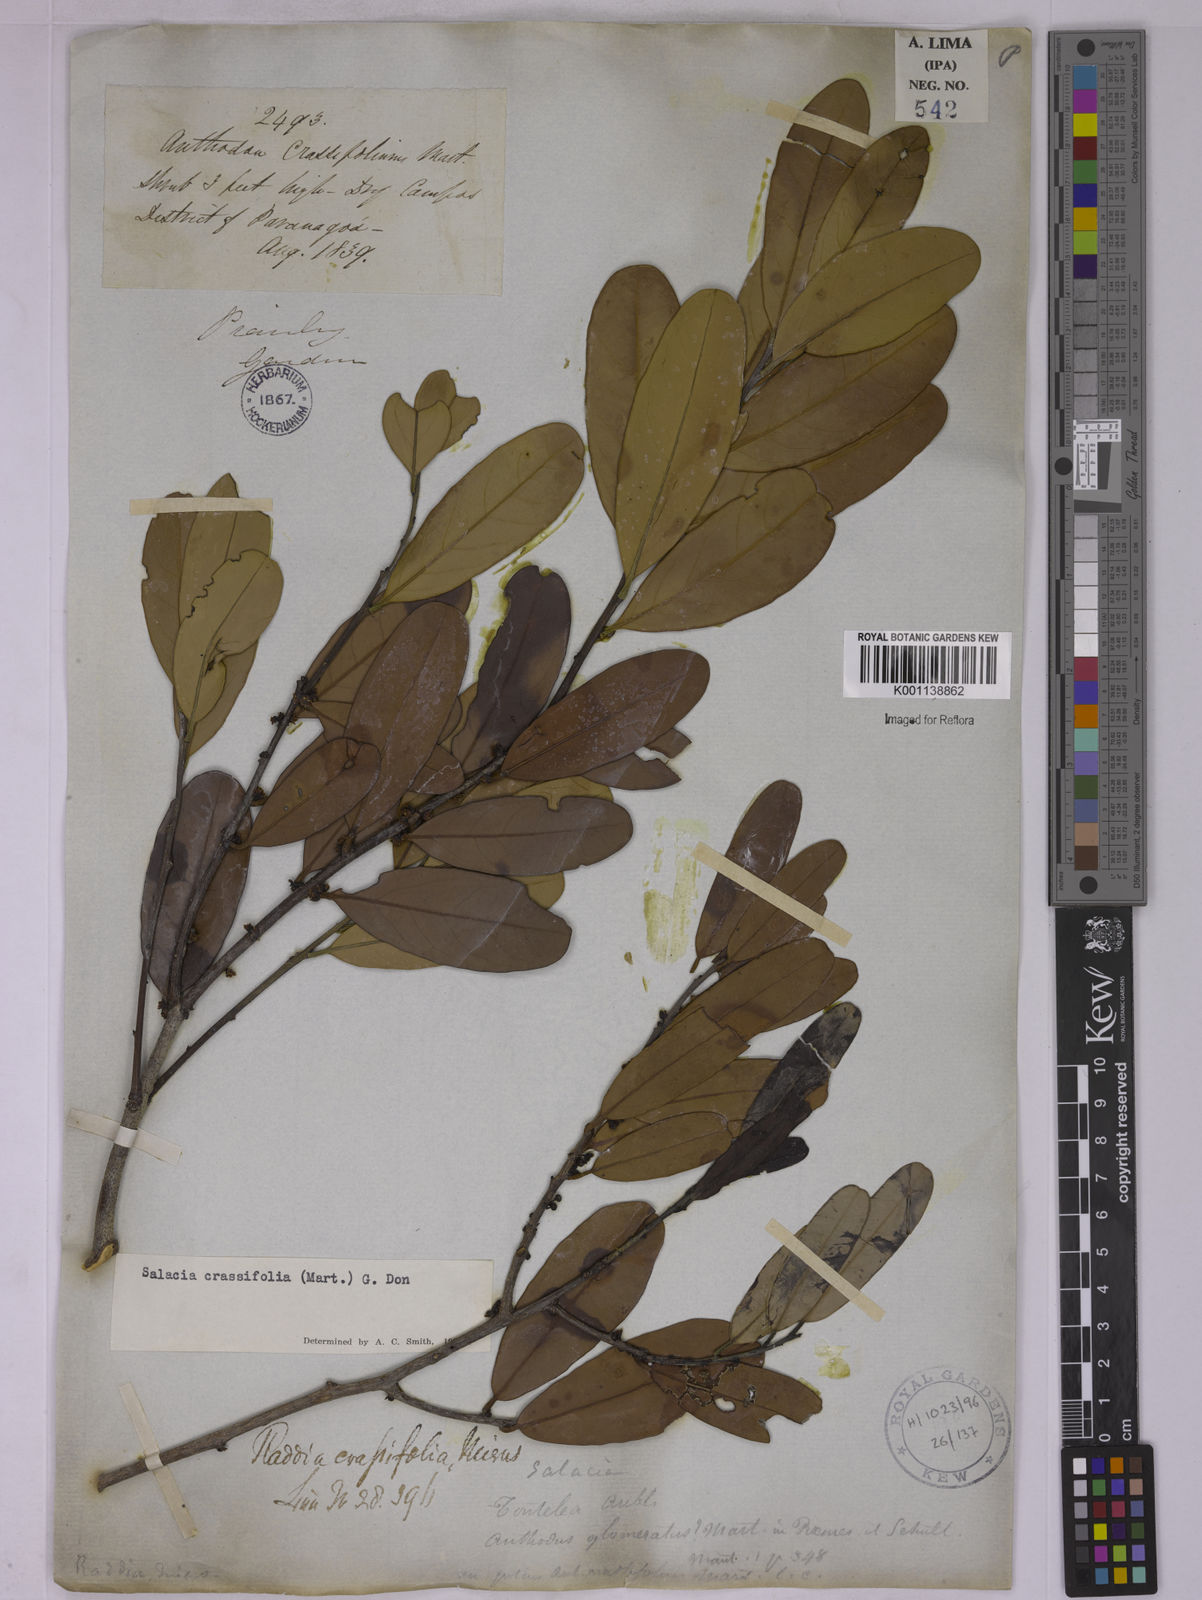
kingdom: Plantae
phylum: Tracheophyta
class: Magnoliopsida
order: Celastrales
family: Celastraceae
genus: Salacia
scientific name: Salacia crassifolia
